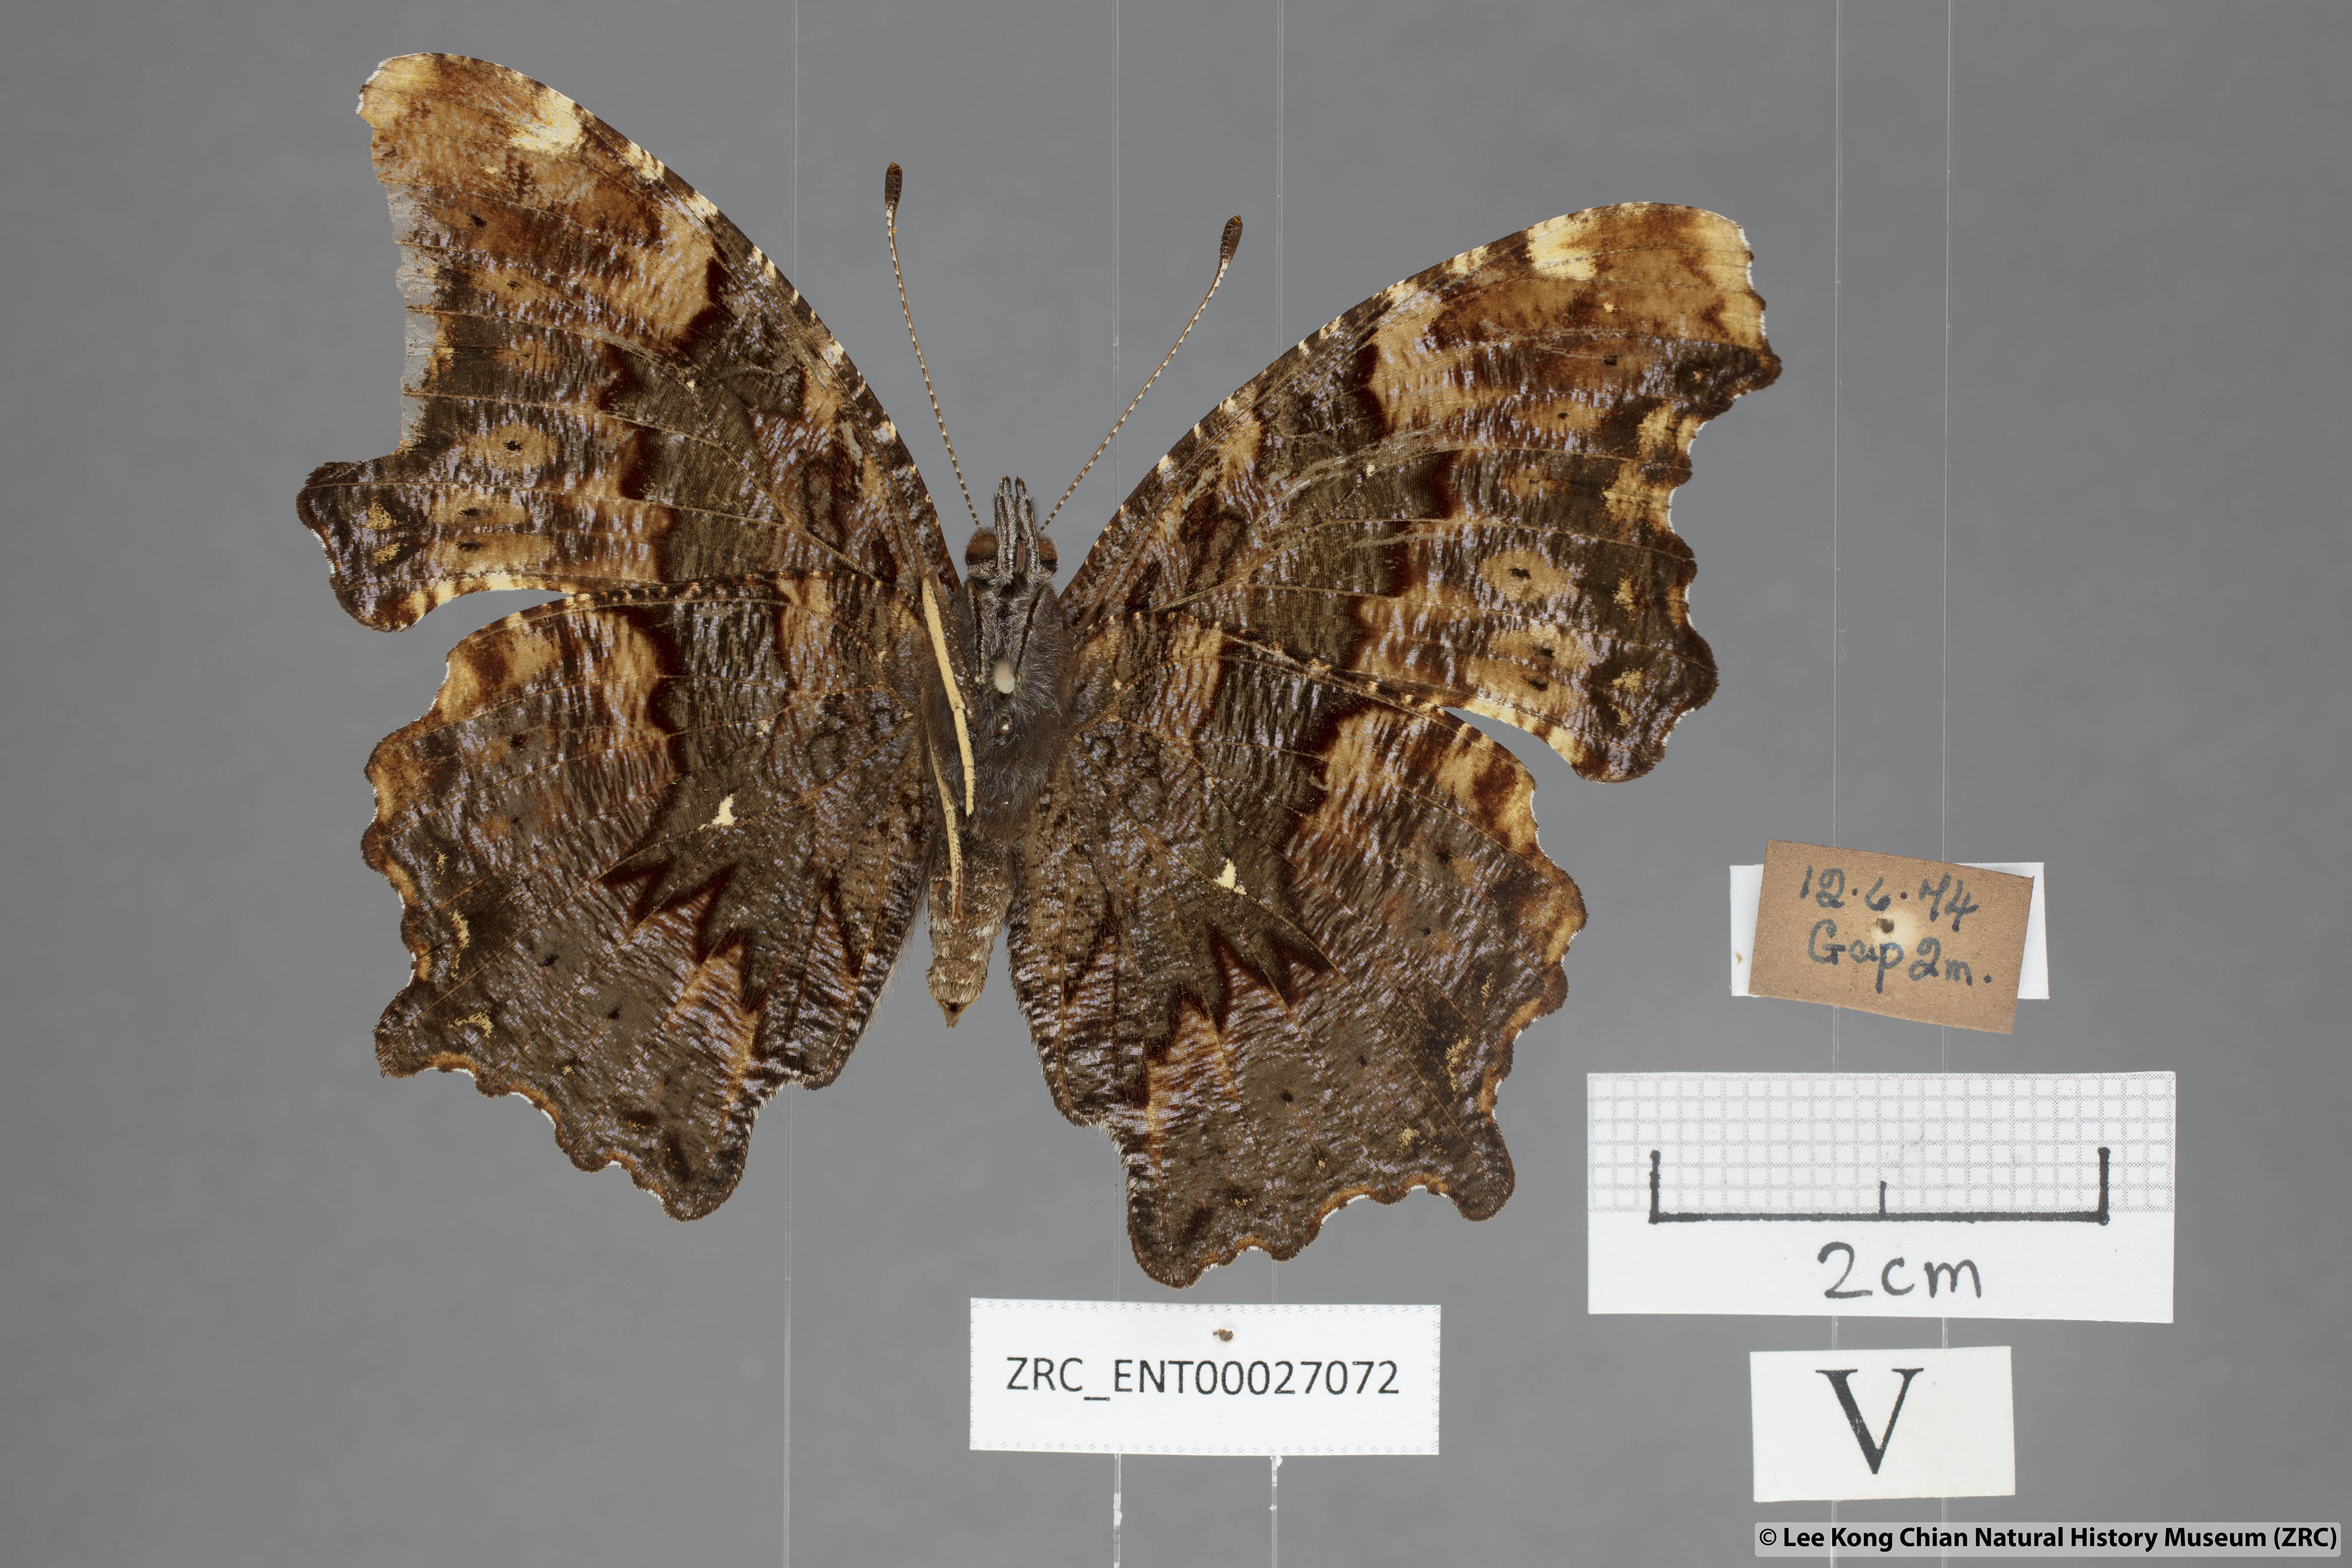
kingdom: Animalia
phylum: Arthropoda
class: Insecta
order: Lepidoptera
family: Nymphalidae
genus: Vanessa
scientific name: Vanessa Kaniska canace
